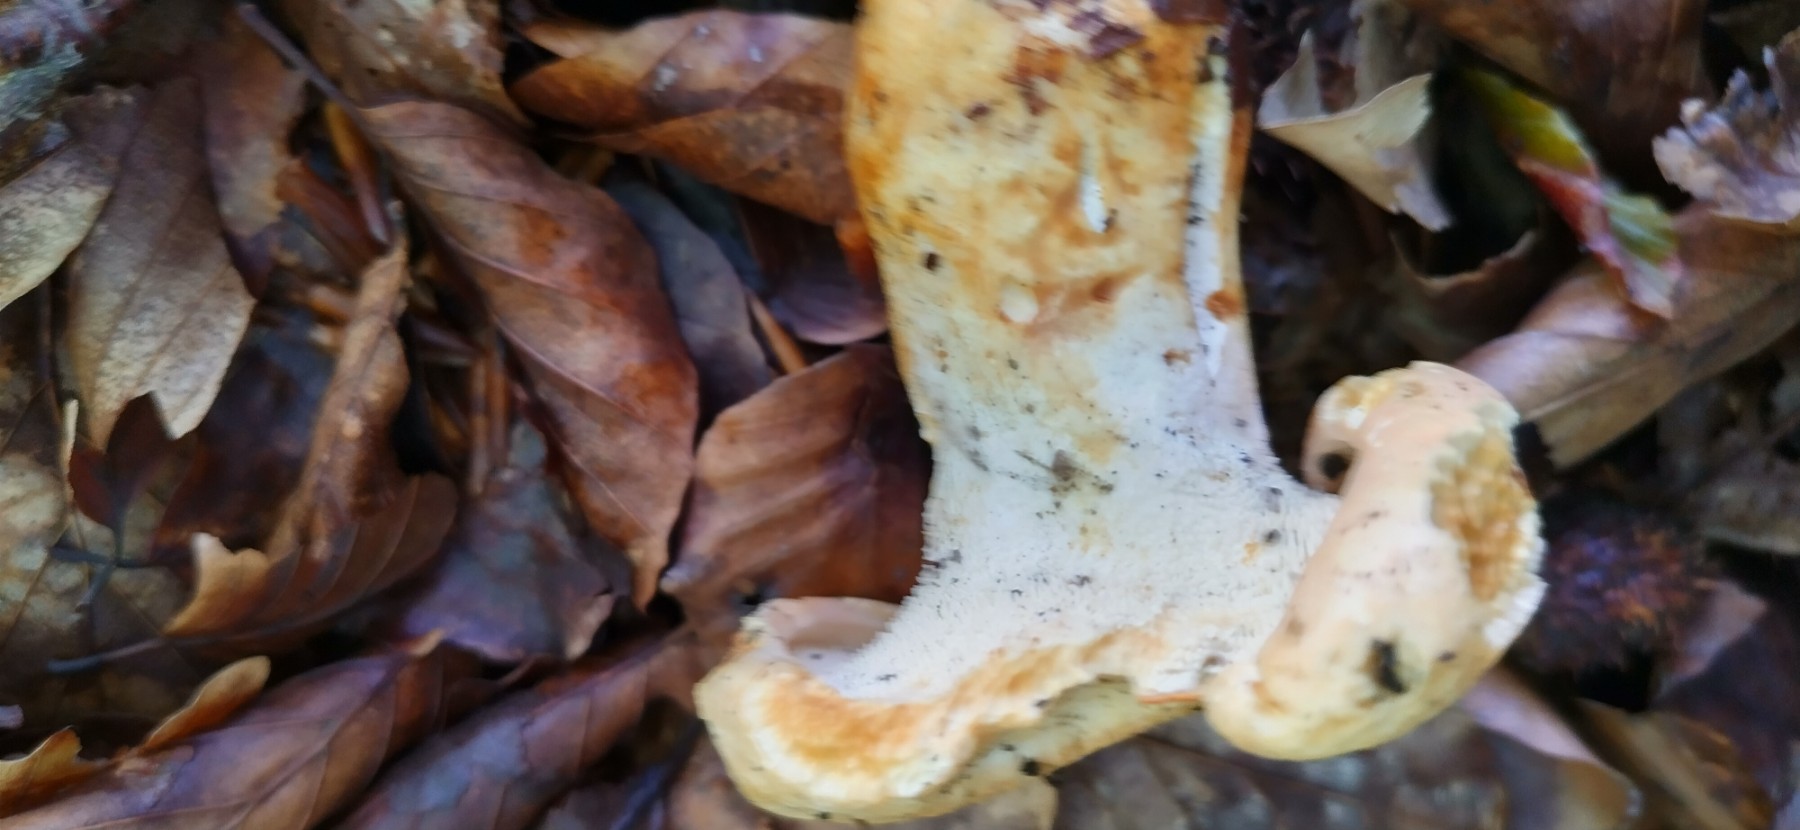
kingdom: Fungi
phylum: Basidiomycota
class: Agaricomycetes
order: Cantharellales
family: Hydnaceae
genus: Hydnum
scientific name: Hydnum repandum
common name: almindelig pigsvamp
